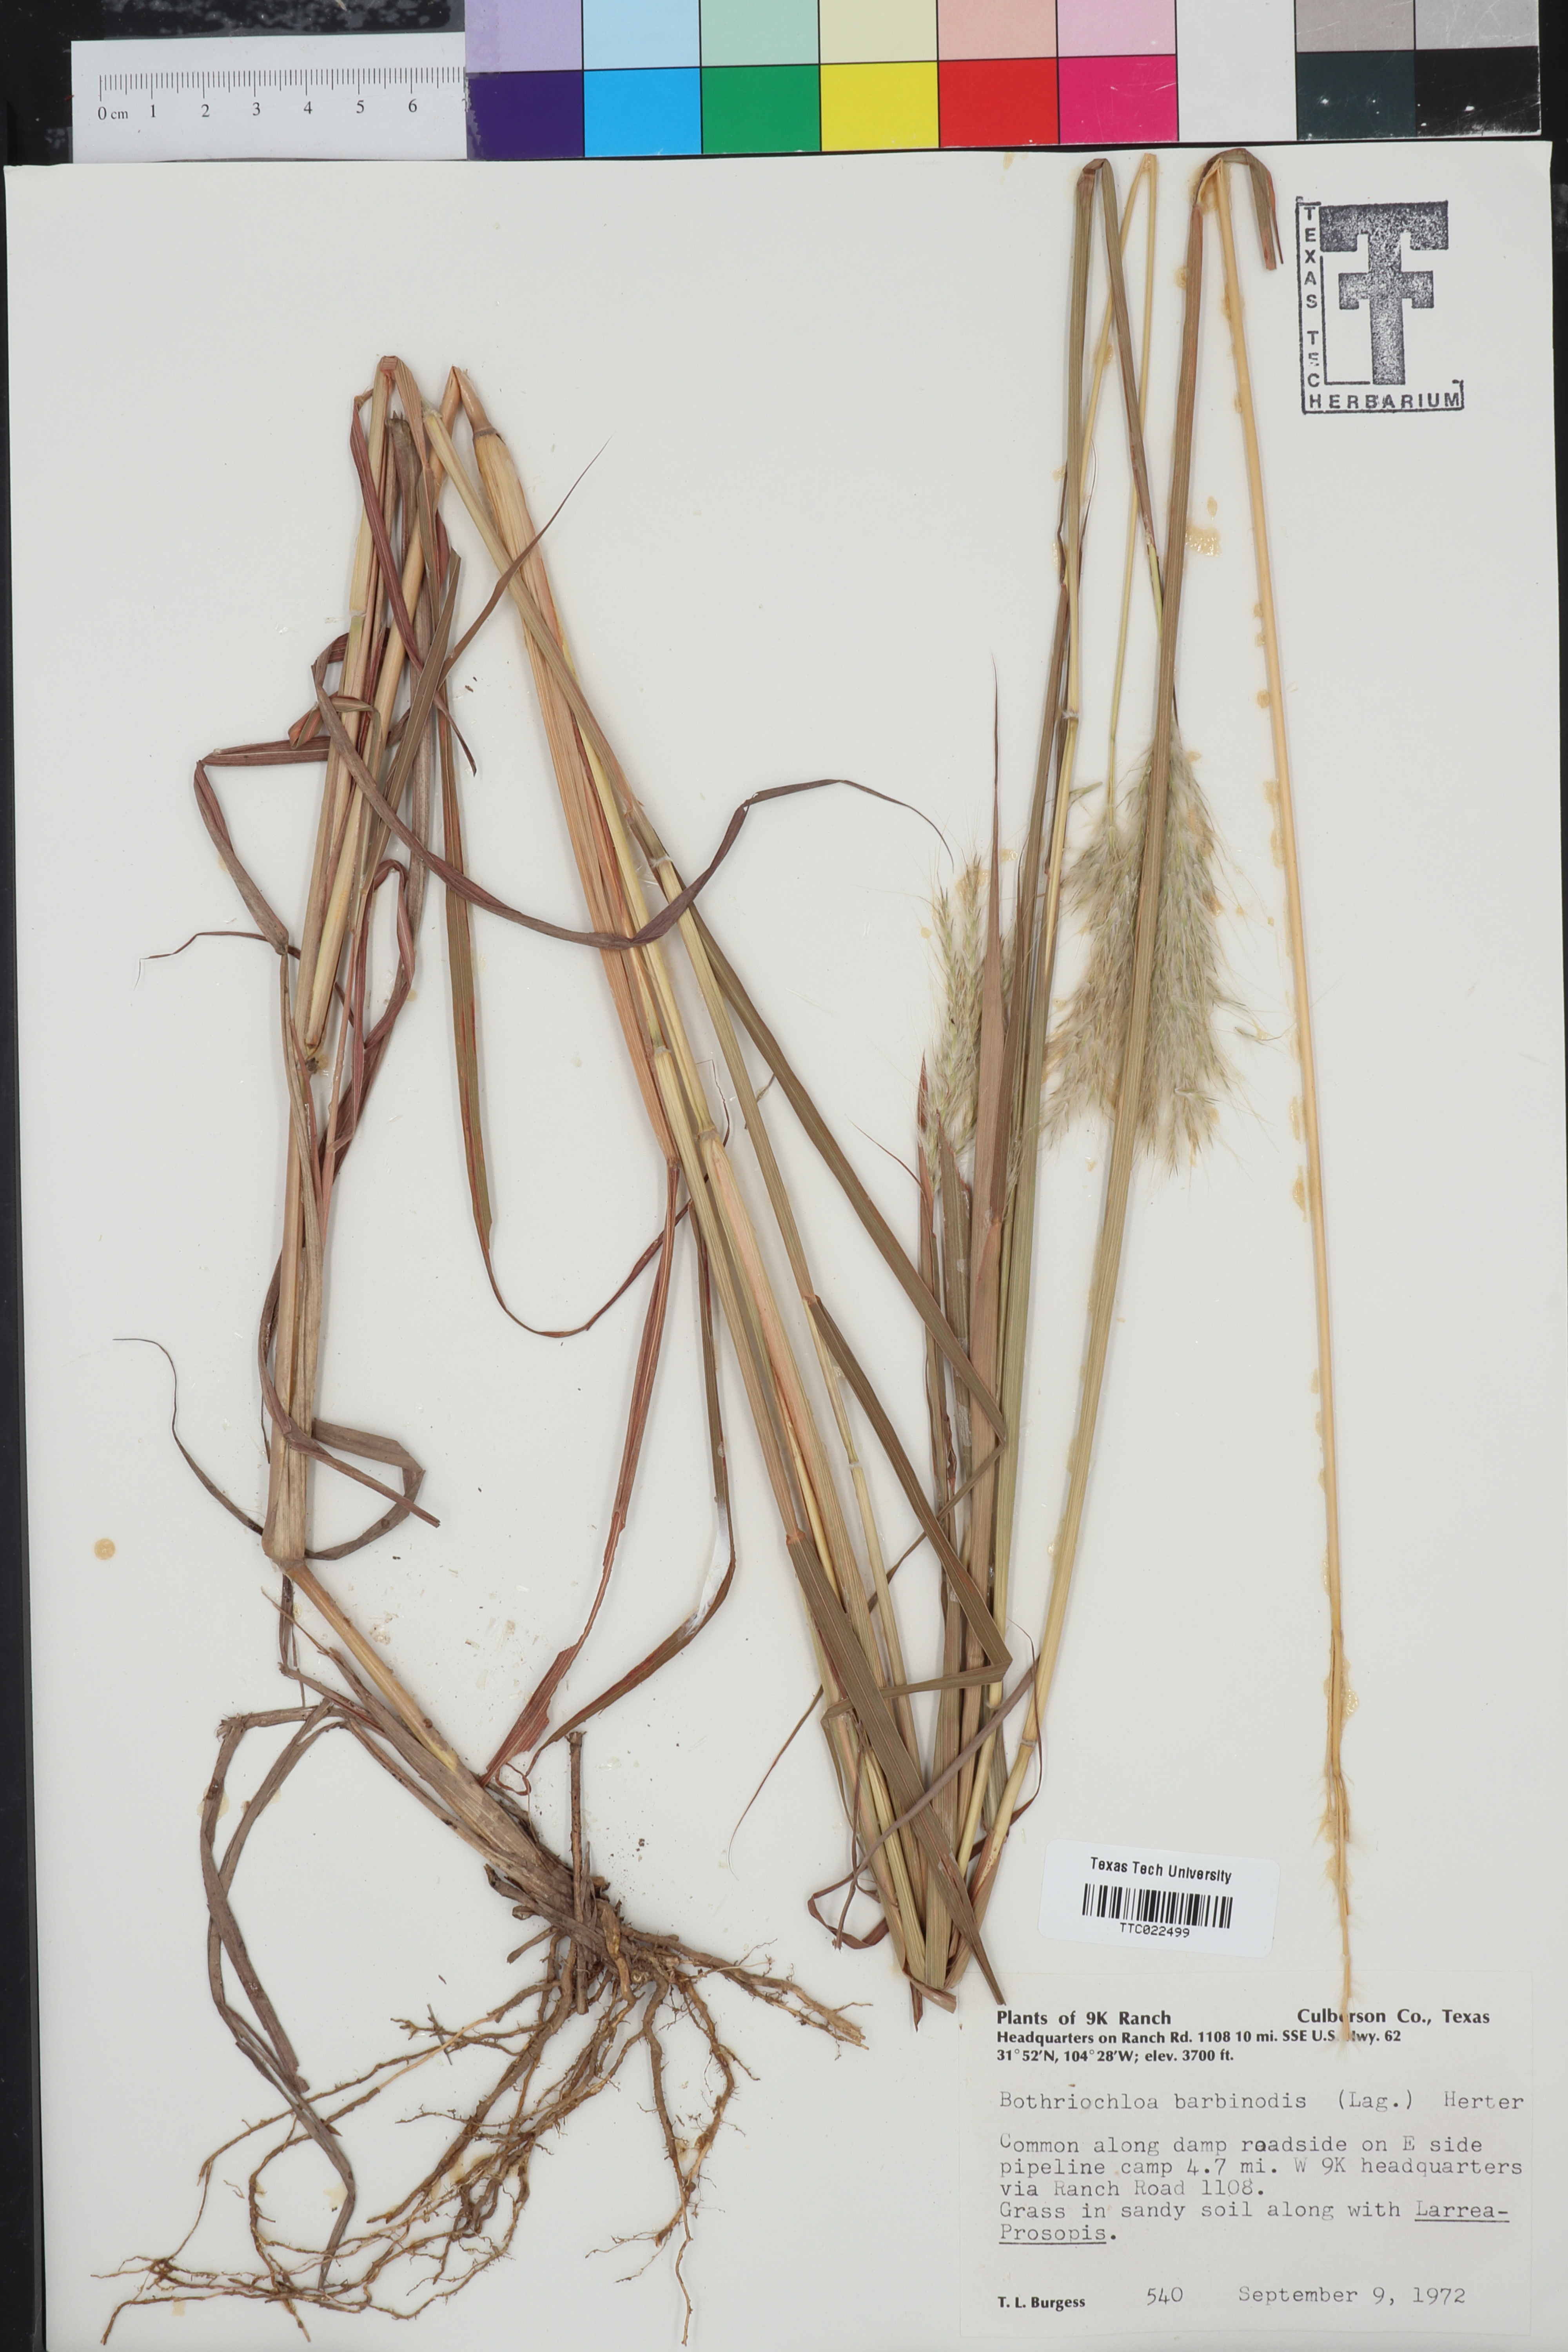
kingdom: Plantae
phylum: Tracheophyta
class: Liliopsida
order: Poales
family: Poaceae
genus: Bothriochloa
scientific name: Bothriochloa barbinodis
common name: Cane bluestem
